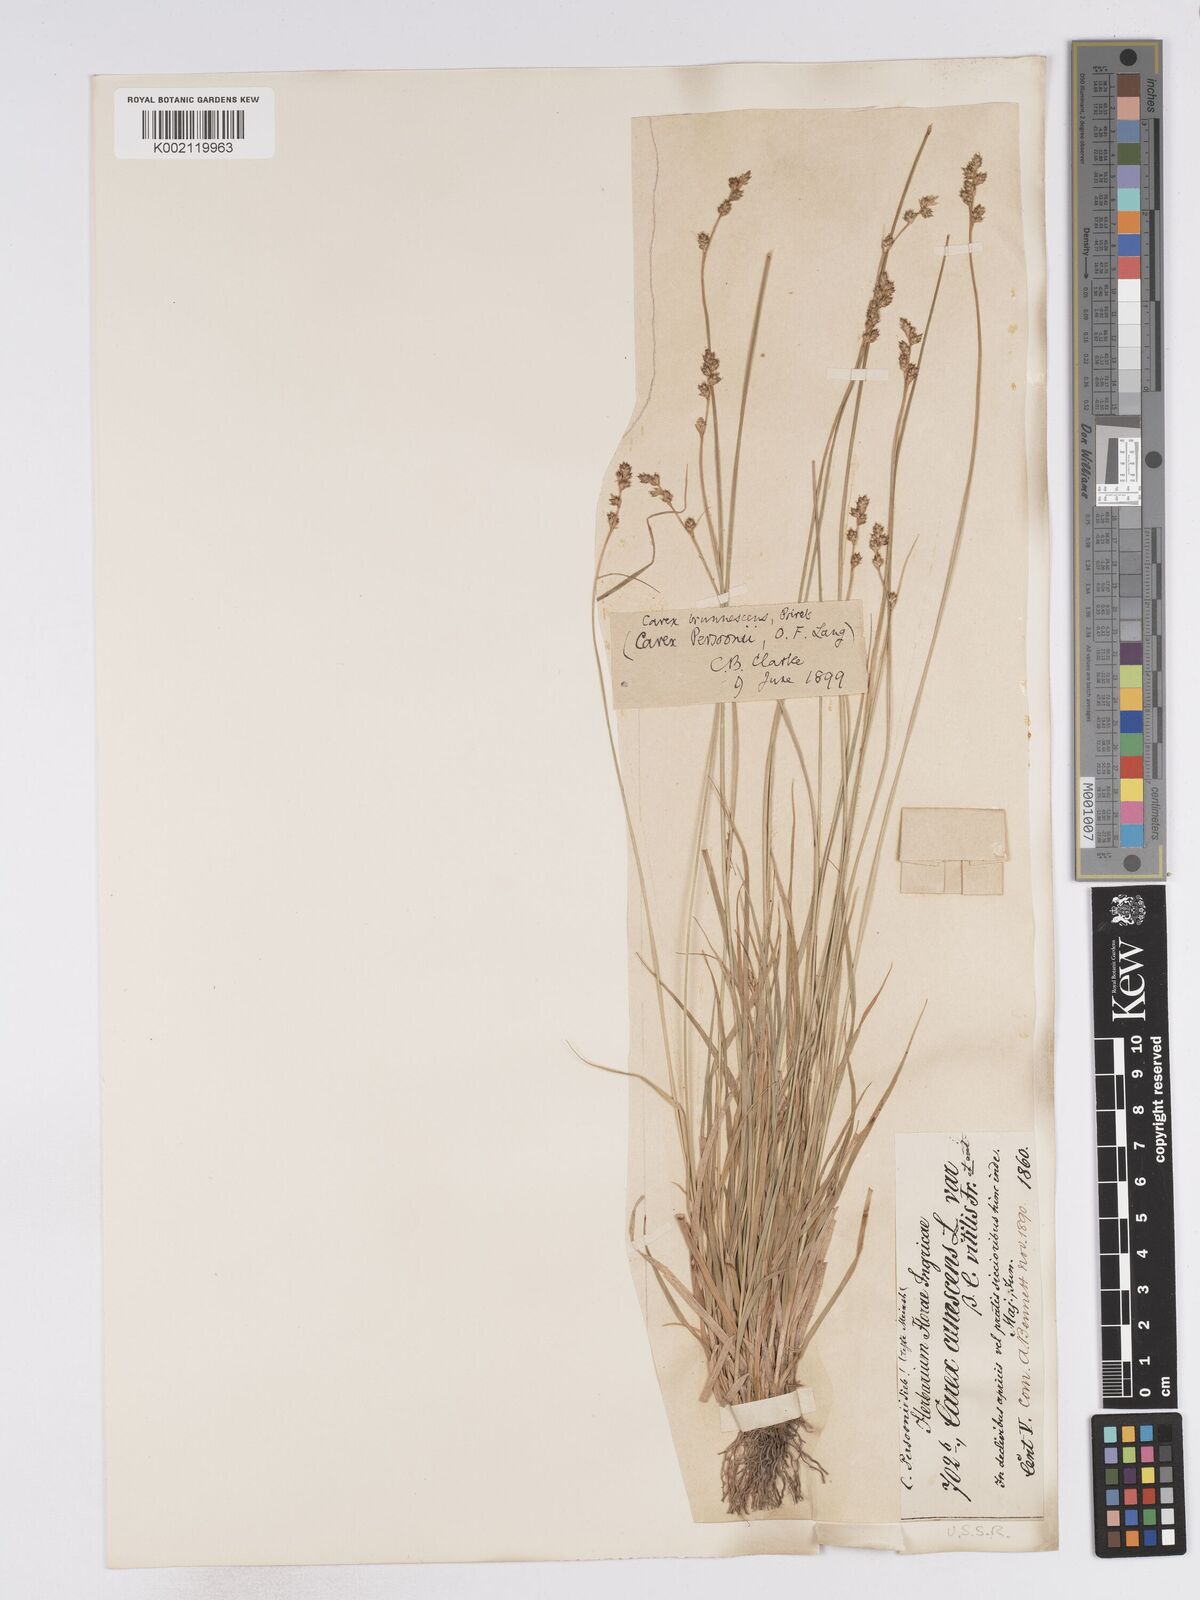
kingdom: Plantae
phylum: Tracheophyta
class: Liliopsida
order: Poales
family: Cyperaceae
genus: Carex
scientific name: Carex canescens
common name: White sedge
